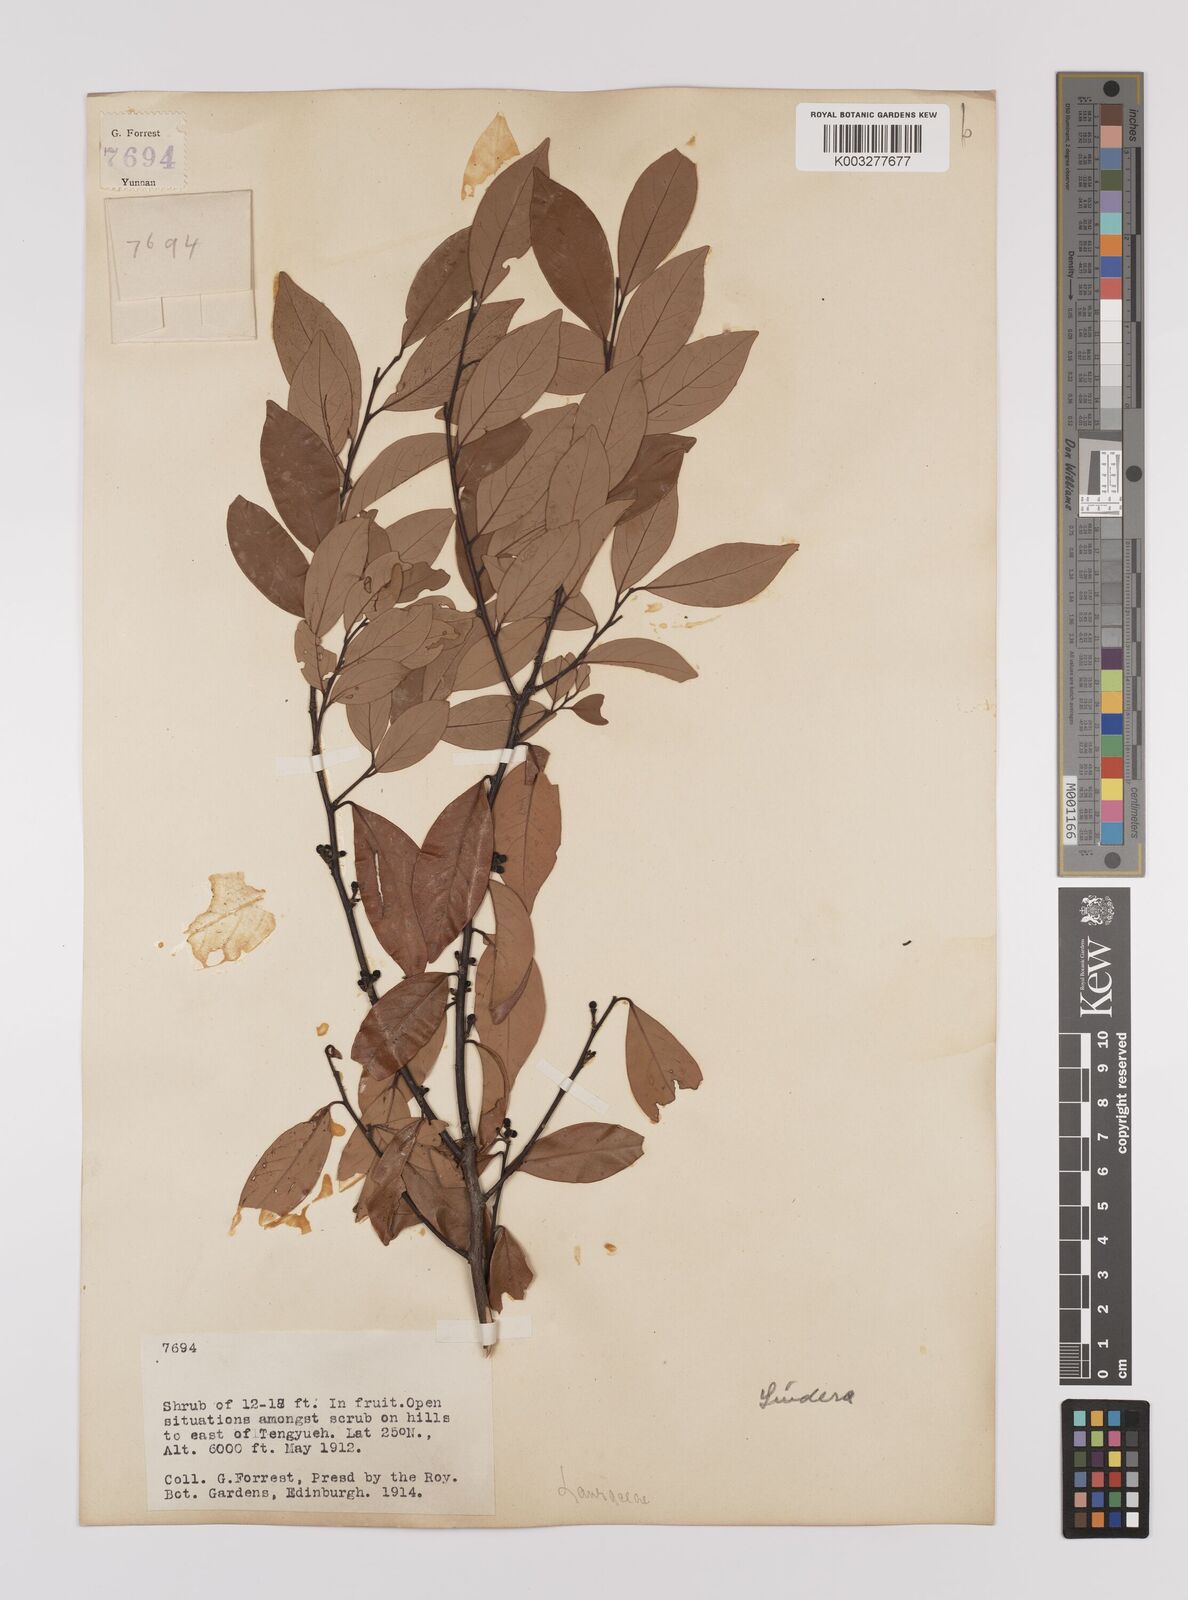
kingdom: Plantae
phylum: Tracheophyta
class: Magnoliopsida
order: Laurales
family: Lauraceae
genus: Litsea
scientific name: Litsea rotundifolia
